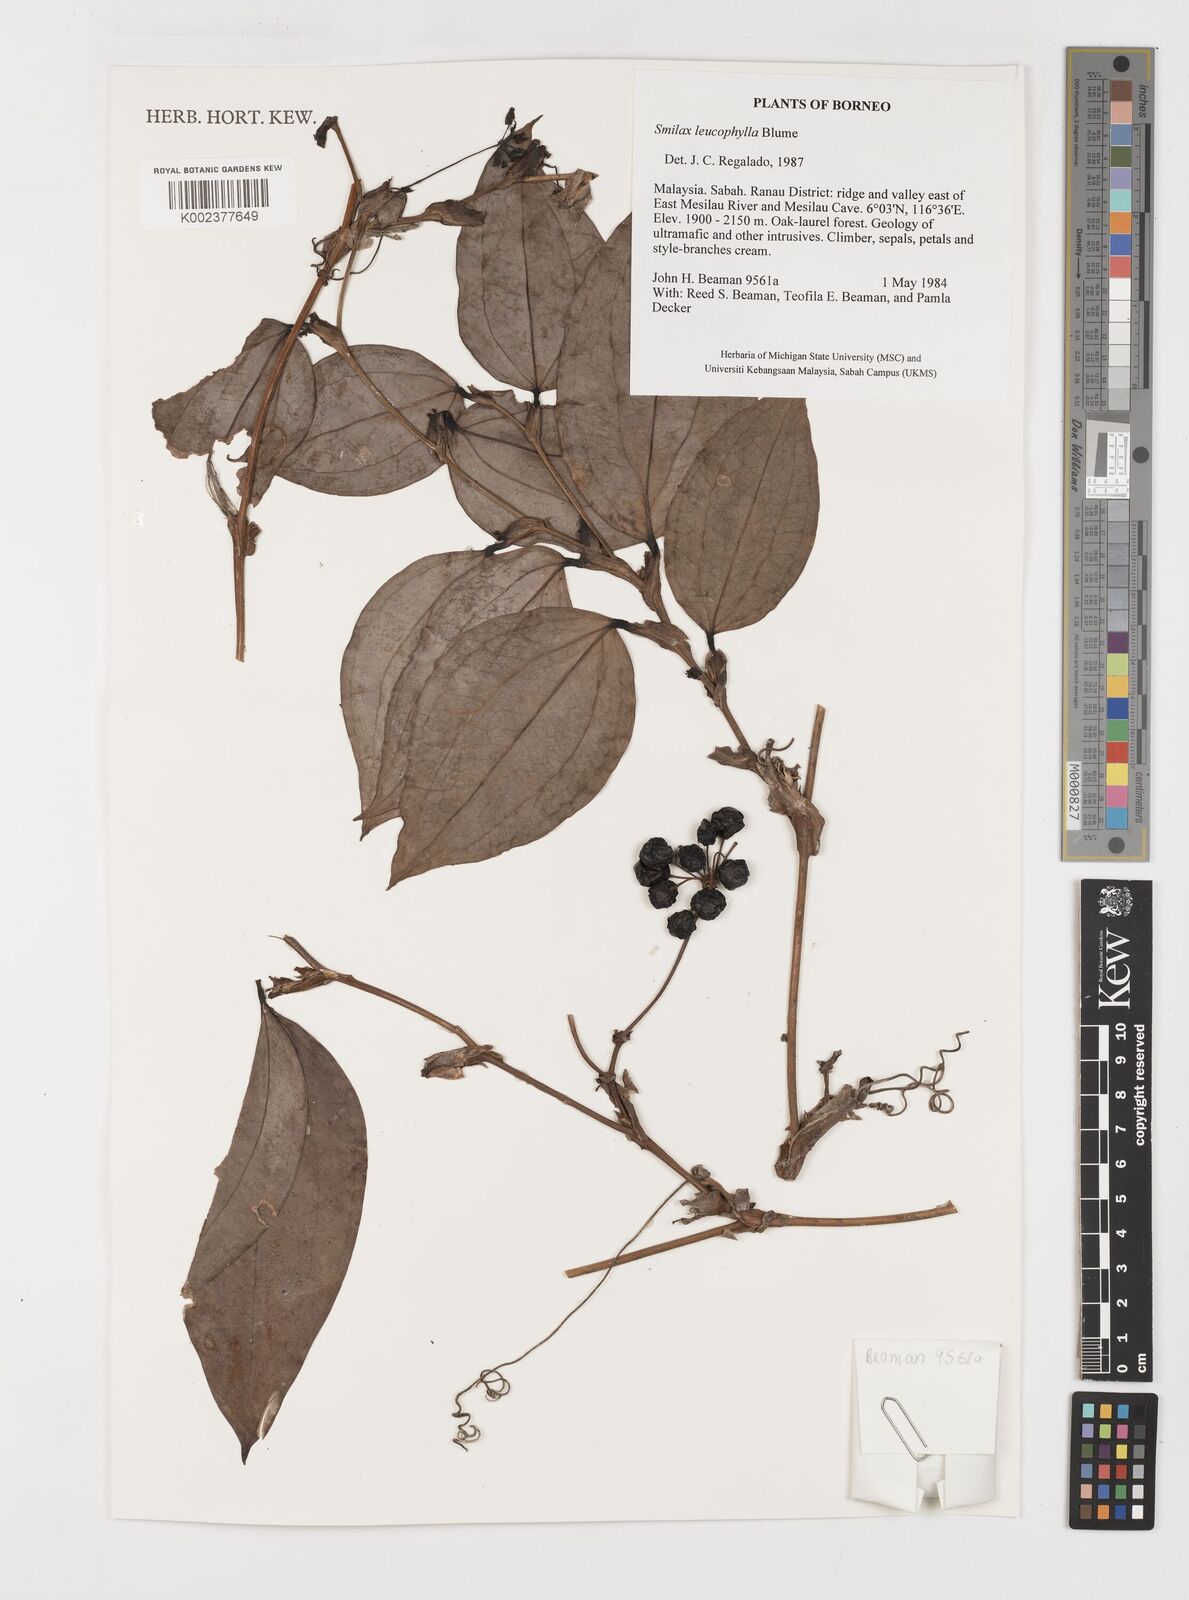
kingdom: Plantae
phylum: Tracheophyta
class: Liliopsida
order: Liliales
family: Smilacaceae
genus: Smilax
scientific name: Smilax
